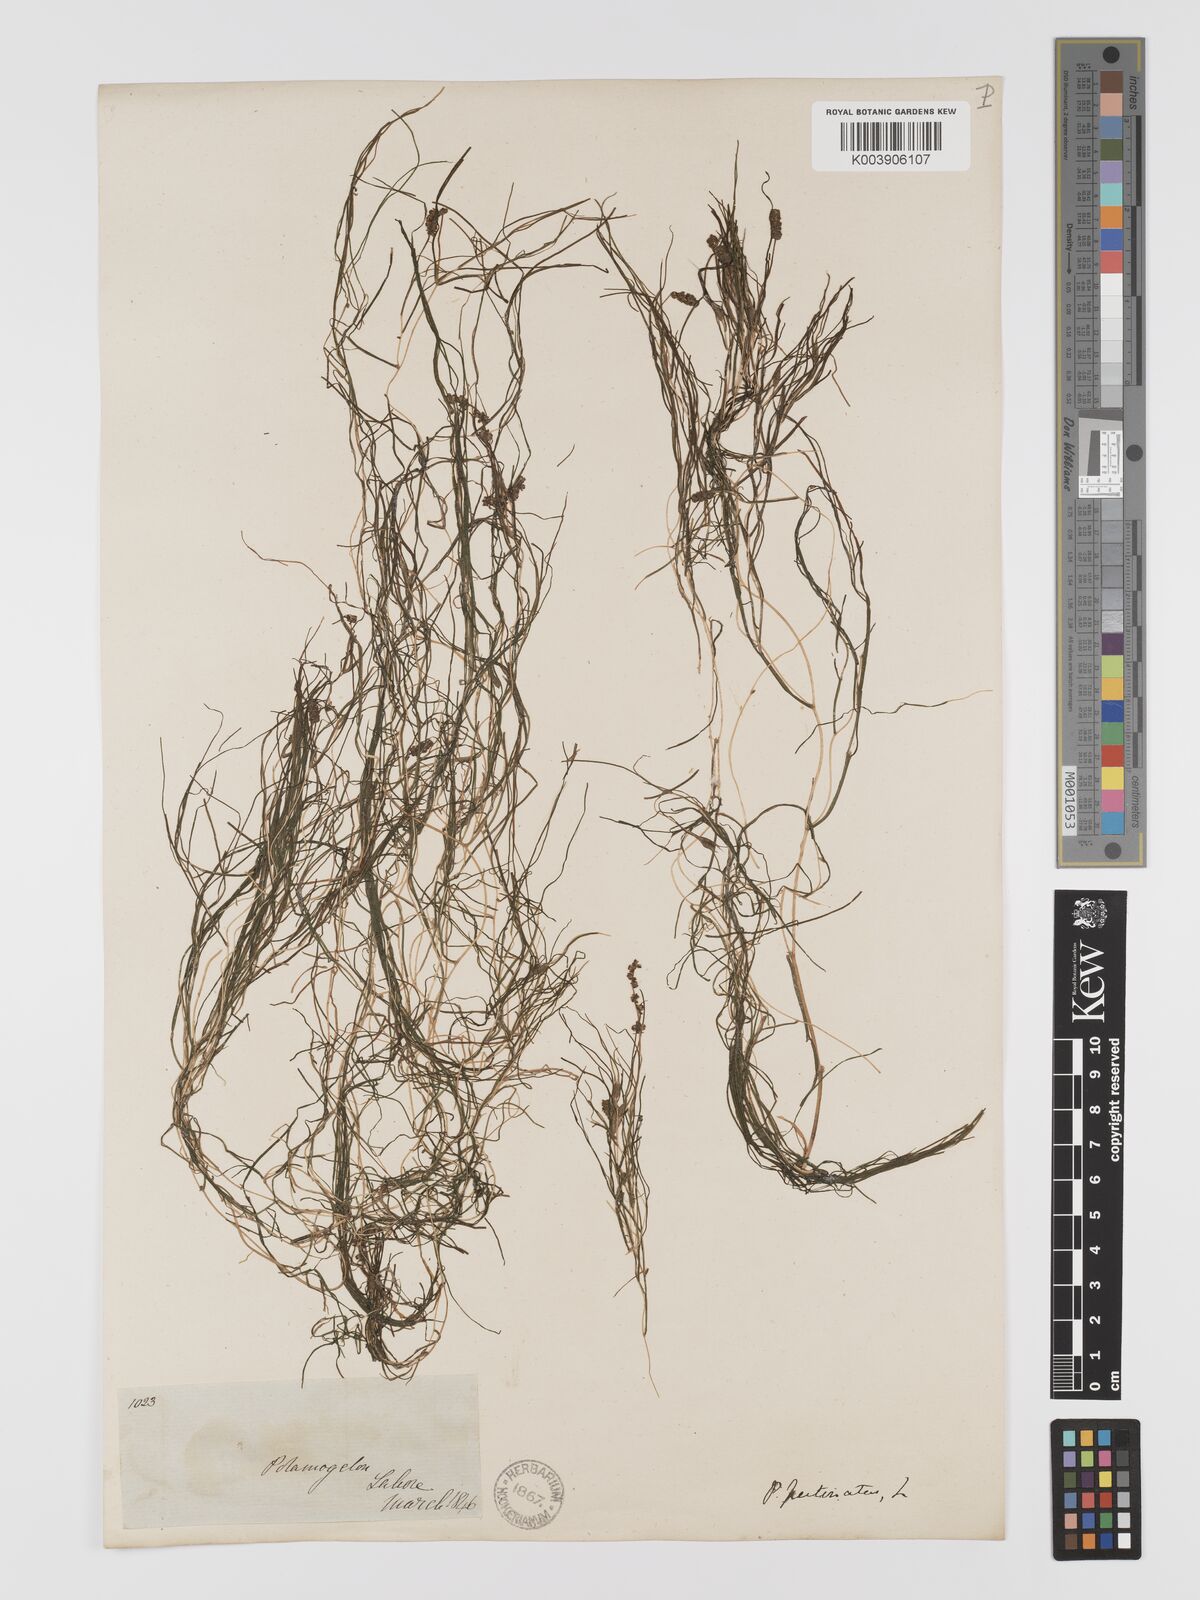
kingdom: Plantae
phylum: Tracheophyta
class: Liliopsida
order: Alismatales
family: Potamogetonaceae
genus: Stuckenia
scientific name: Stuckenia pectinata
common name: Sago pondweed
